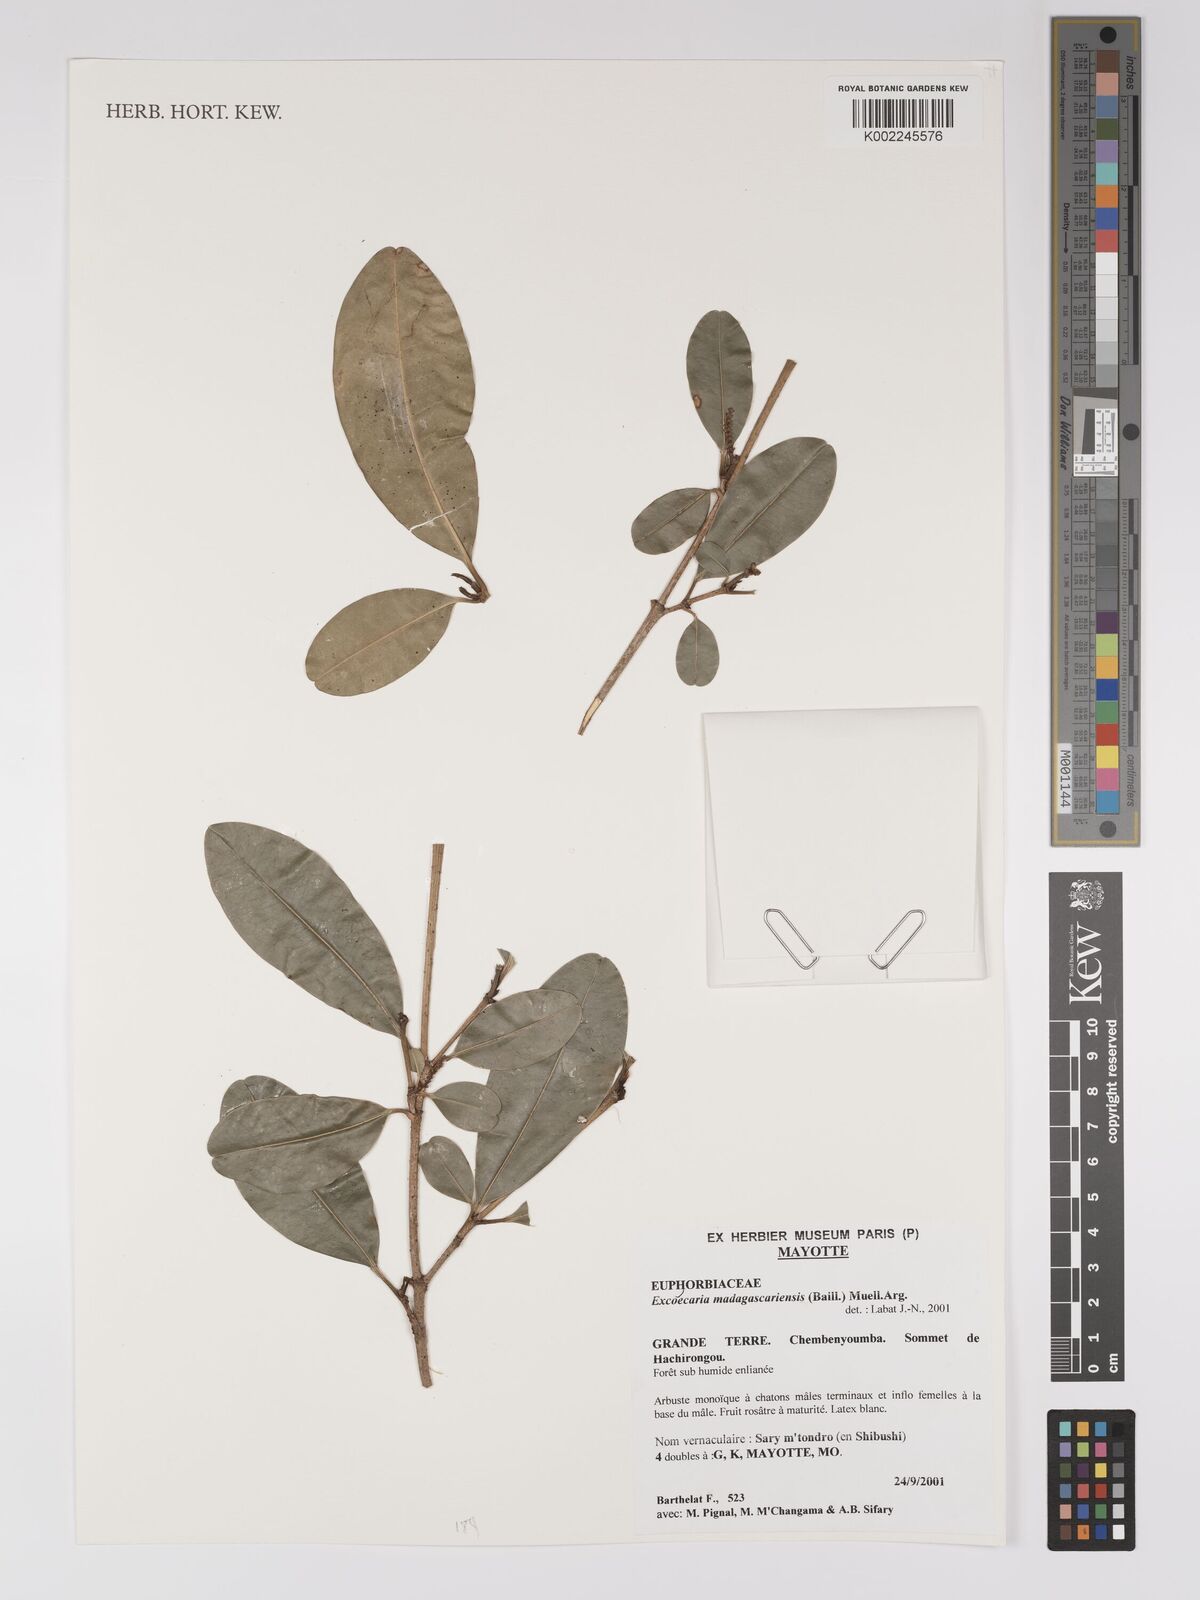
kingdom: Plantae
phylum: Tracheophyta
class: Magnoliopsida
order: Malpighiales
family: Euphorbiaceae
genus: Excoecaria
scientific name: Excoecaria madagascariensis
